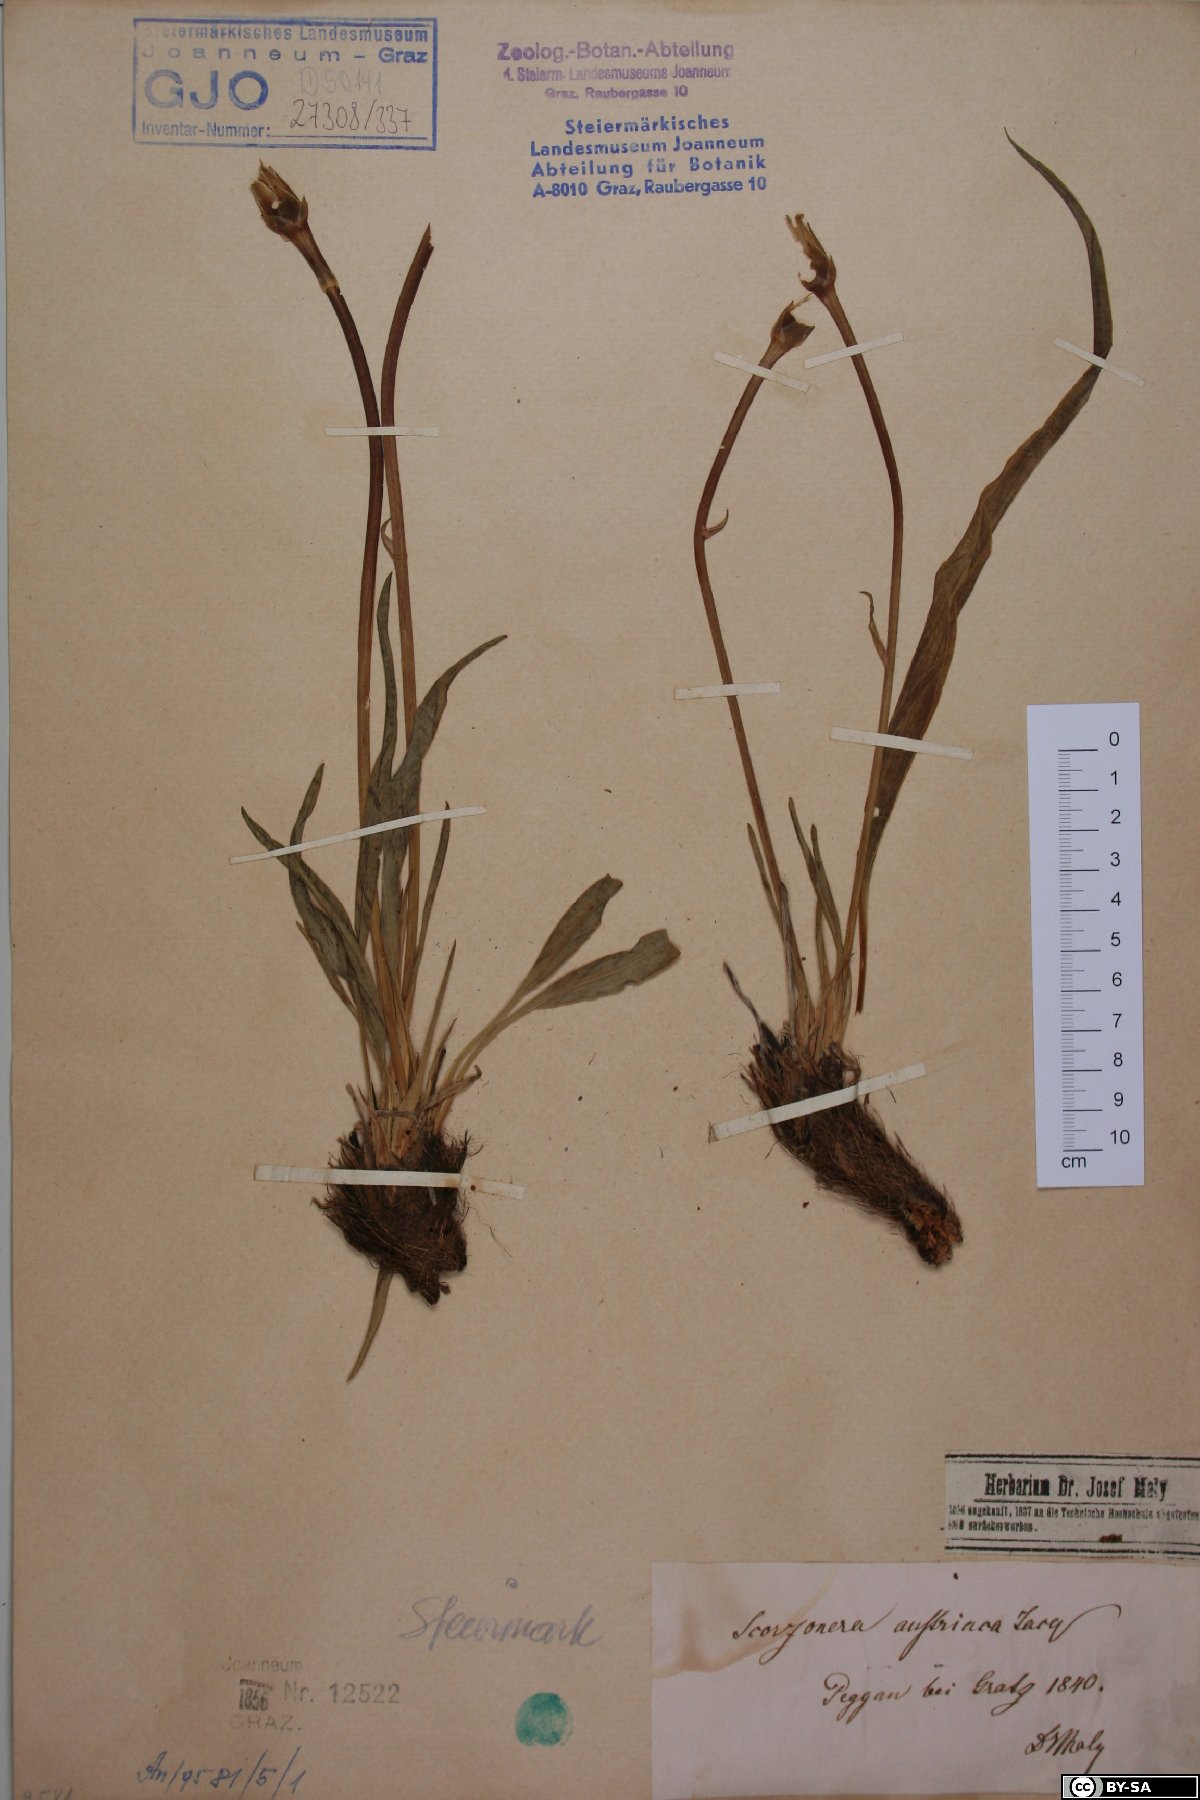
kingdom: Plantae
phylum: Tracheophyta
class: Magnoliopsida
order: Asterales
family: Asteraceae
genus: Takhtajaniantha
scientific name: Takhtajaniantha austriaca
